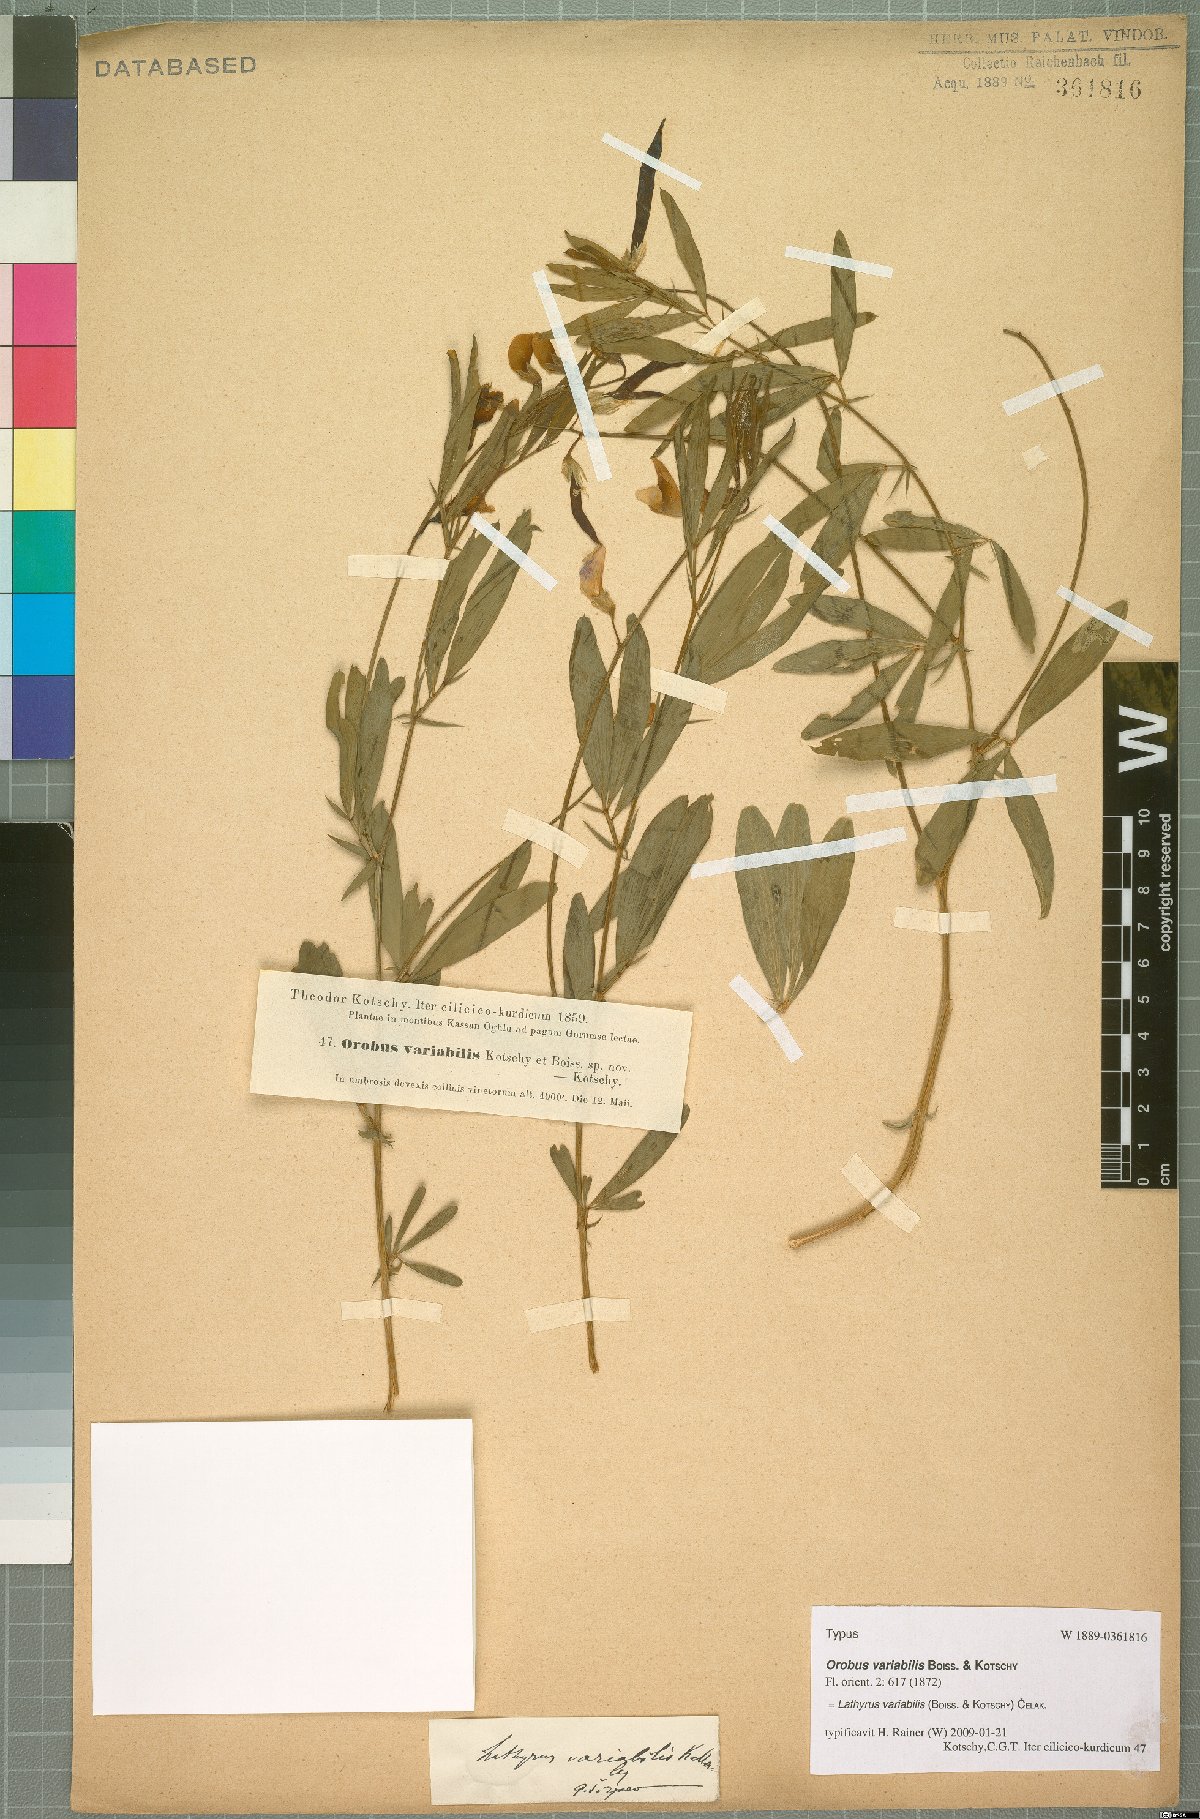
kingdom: Plantae
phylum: Tracheophyta
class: Magnoliopsida
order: Fabales
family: Fabaceae
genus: Lathyrus
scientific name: Lathyrus variabilis
